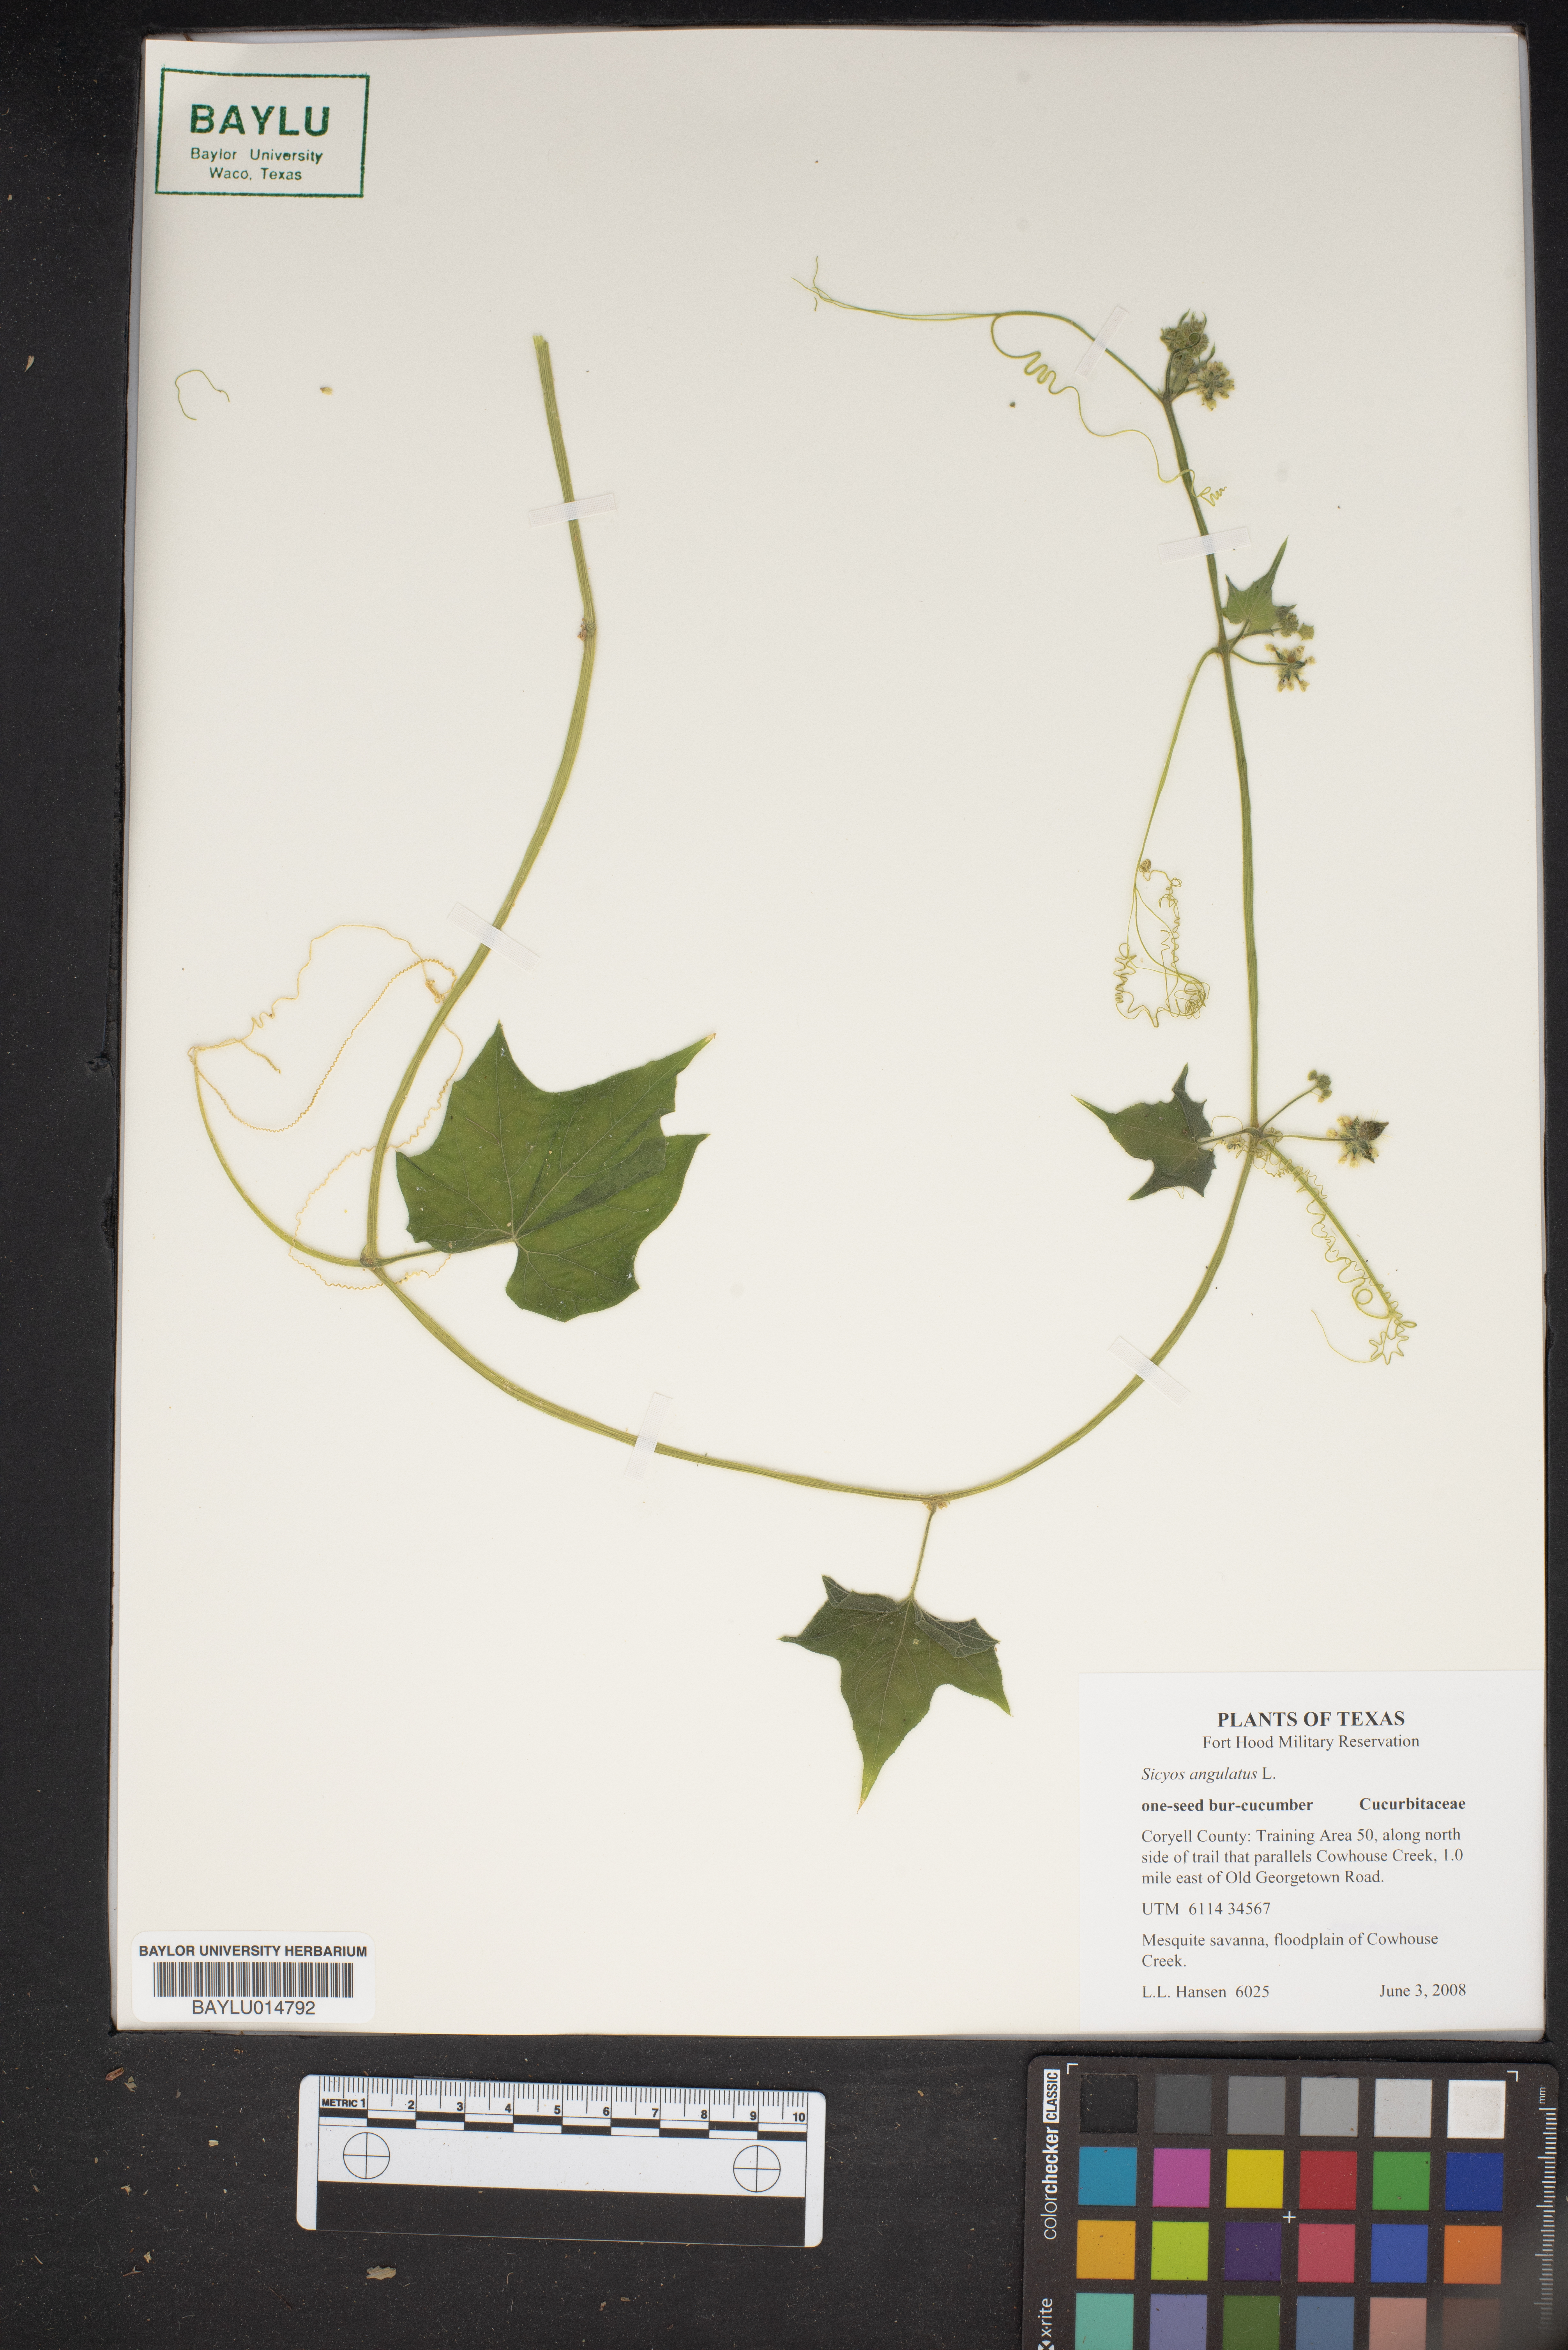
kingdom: Plantae
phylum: Tracheophyta
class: Magnoliopsida
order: Cucurbitales
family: Cucurbitaceae
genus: Sicyos
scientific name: Sicyos angulatus
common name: Angled burr cucumber
